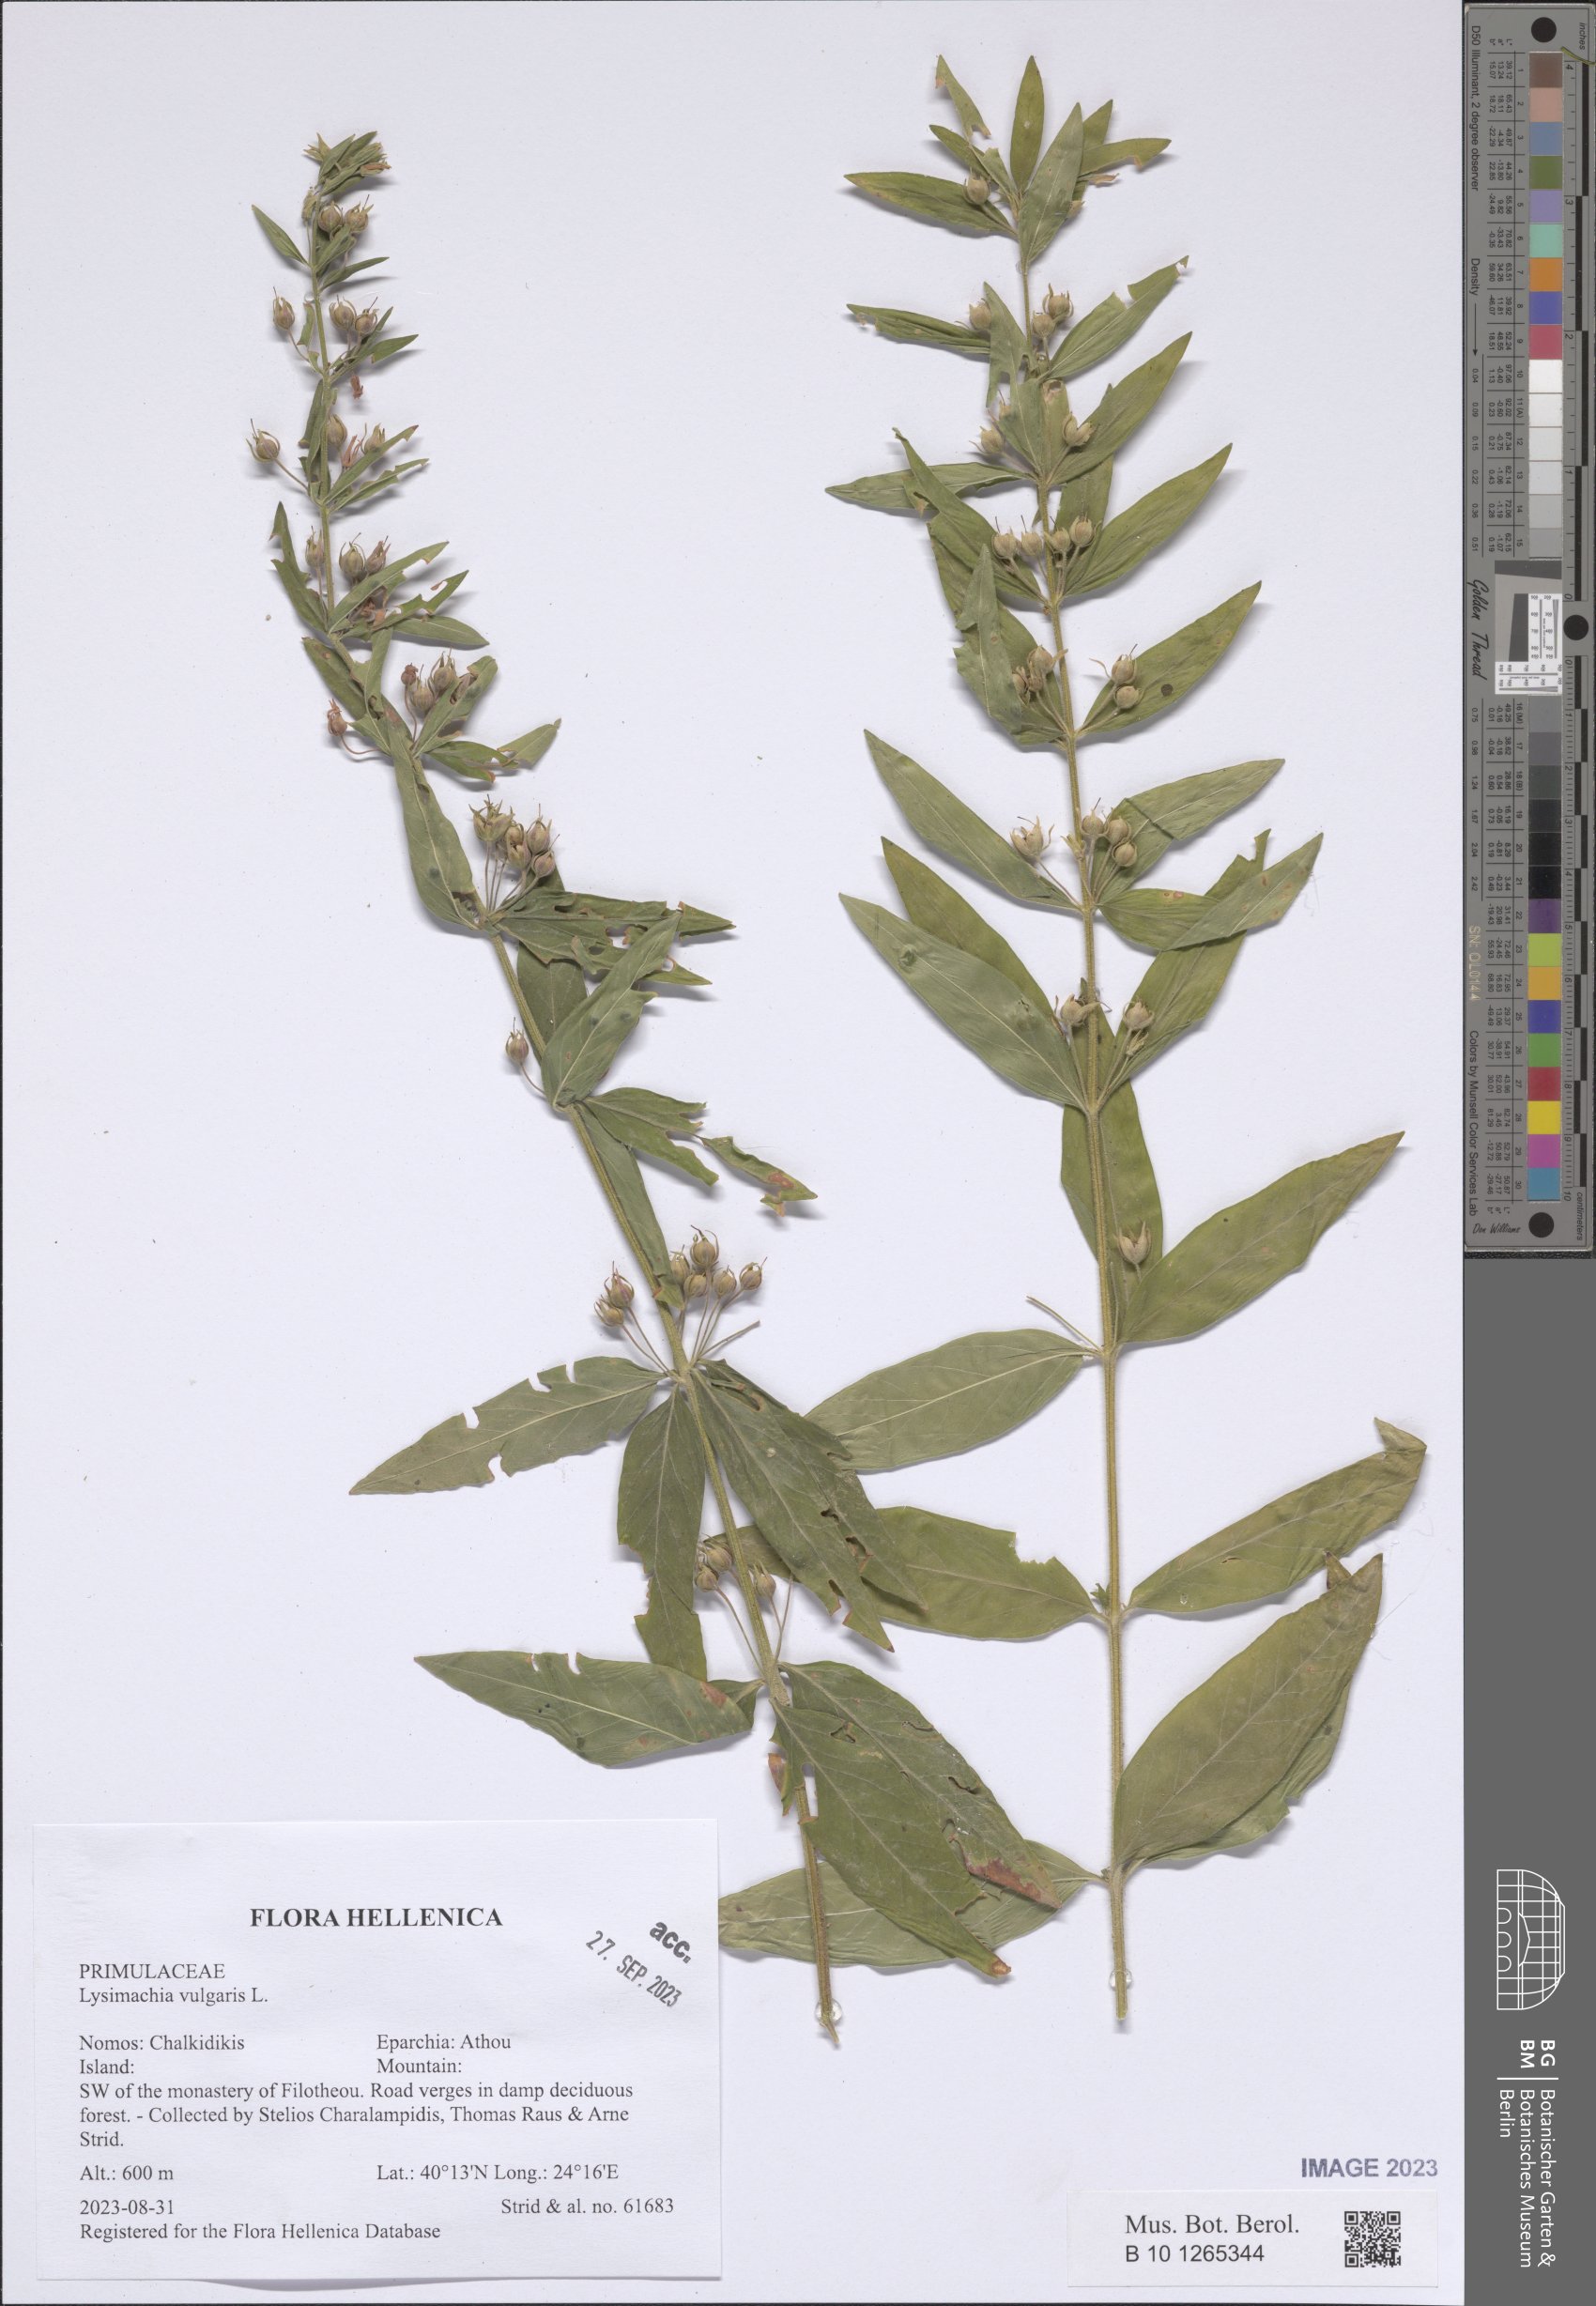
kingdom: Plantae
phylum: Tracheophyta
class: Magnoliopsida
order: Ericales
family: Primulaceae
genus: Lysimachia
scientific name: Lysimachia vulgaris
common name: Yellow loosestrife
